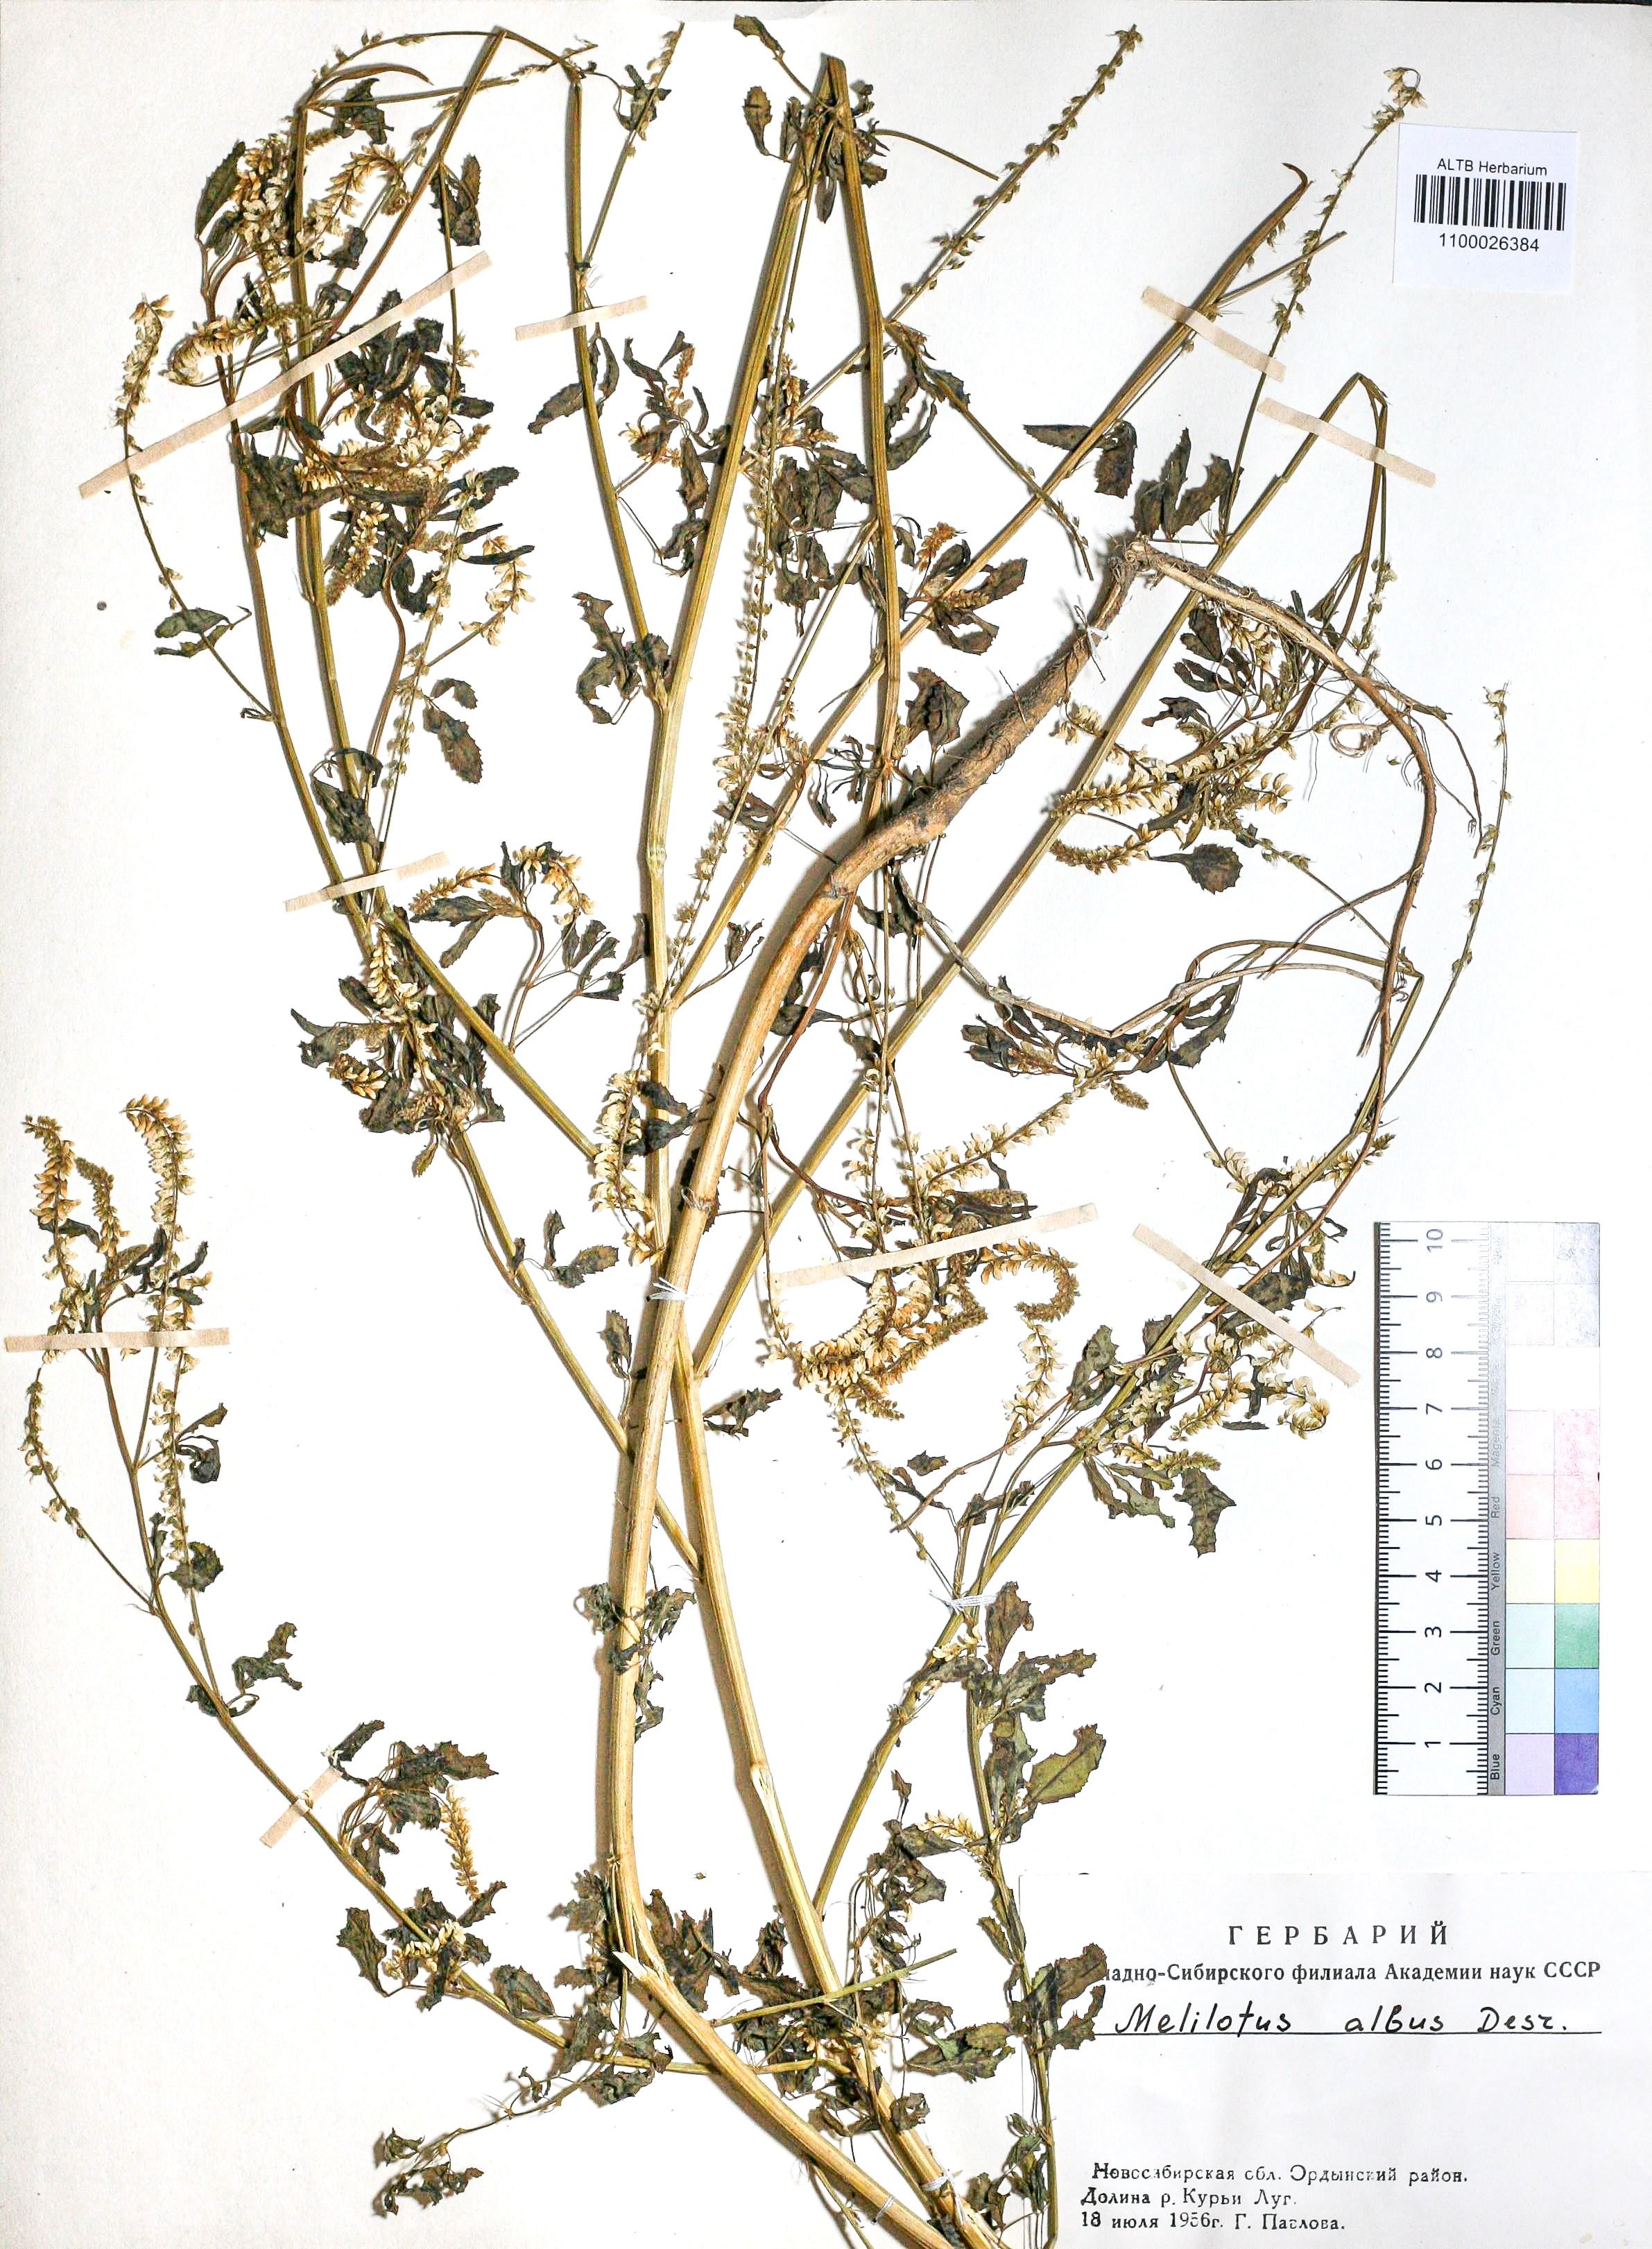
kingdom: Plantae
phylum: Tracheophyta
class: Magnoliopsida
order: Fabales
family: Fabaceae
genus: Melilotus
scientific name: Melilotus albus
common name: White melilot
